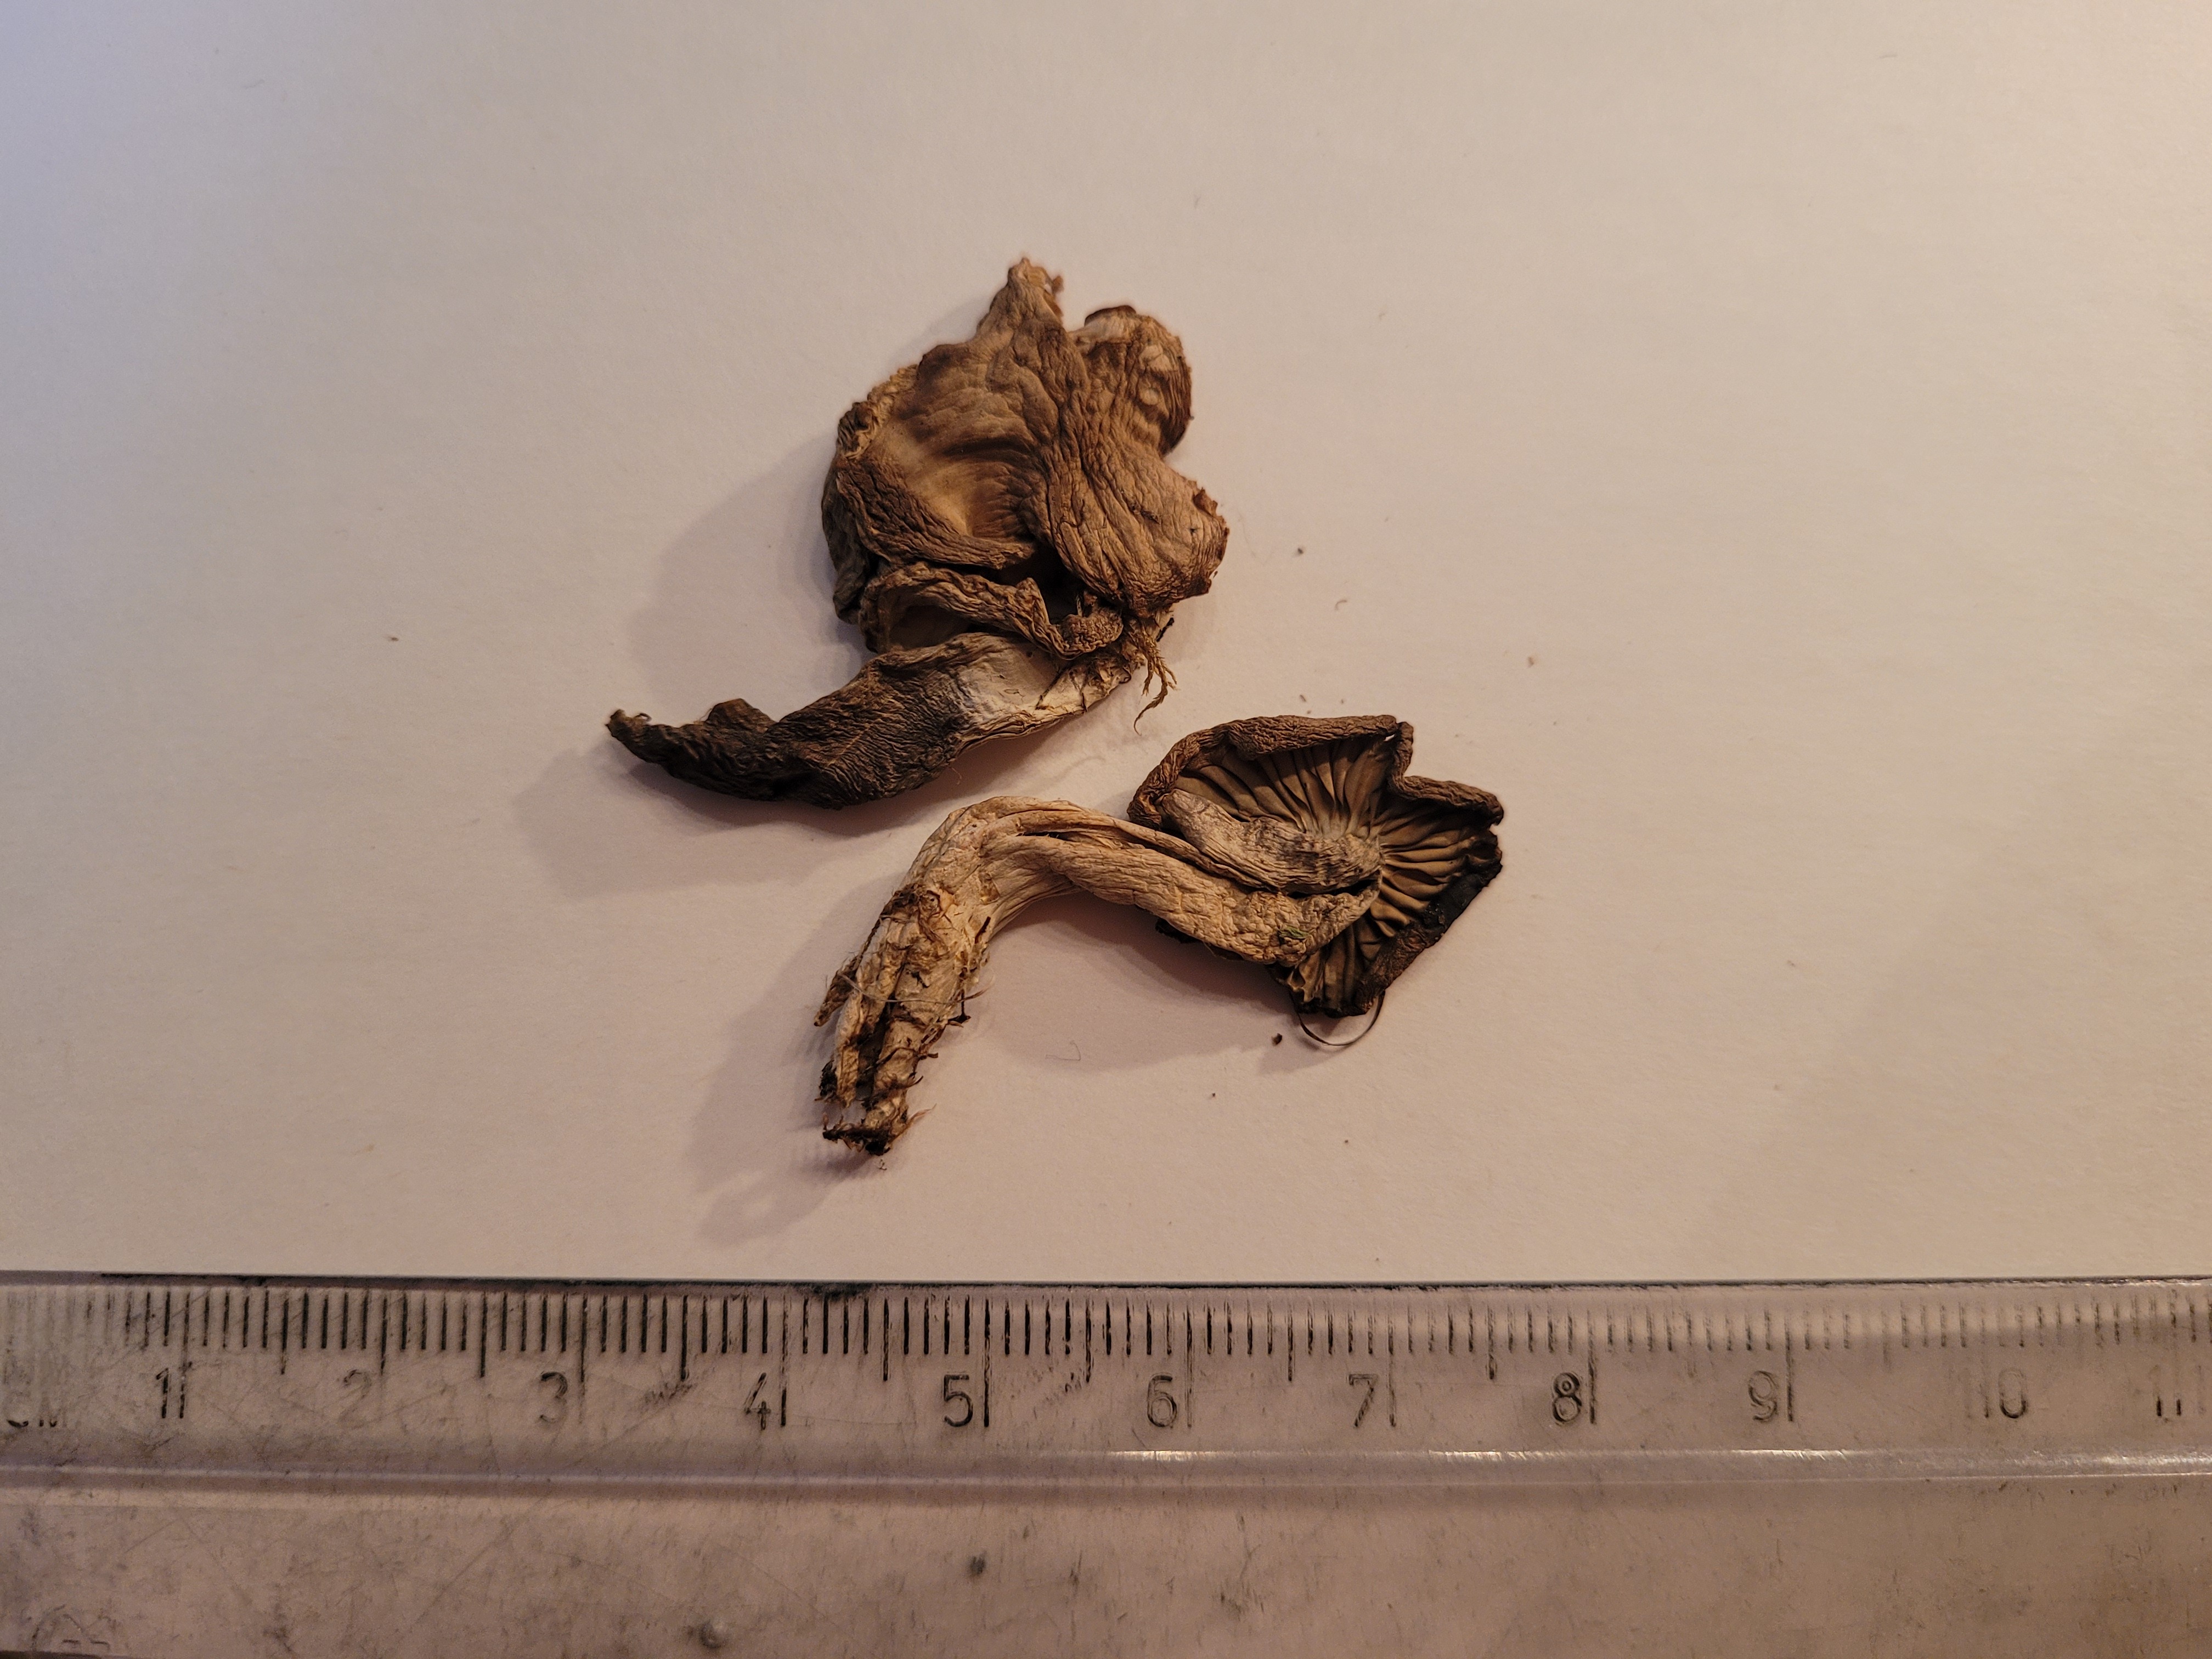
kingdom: Fungi
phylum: Basidiomycota
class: Agaricomycetes
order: Agaricales
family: Clavariaceae
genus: Camarophyllopsis
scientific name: Camarophyllopsis schulzeri
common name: Matt fanvault
